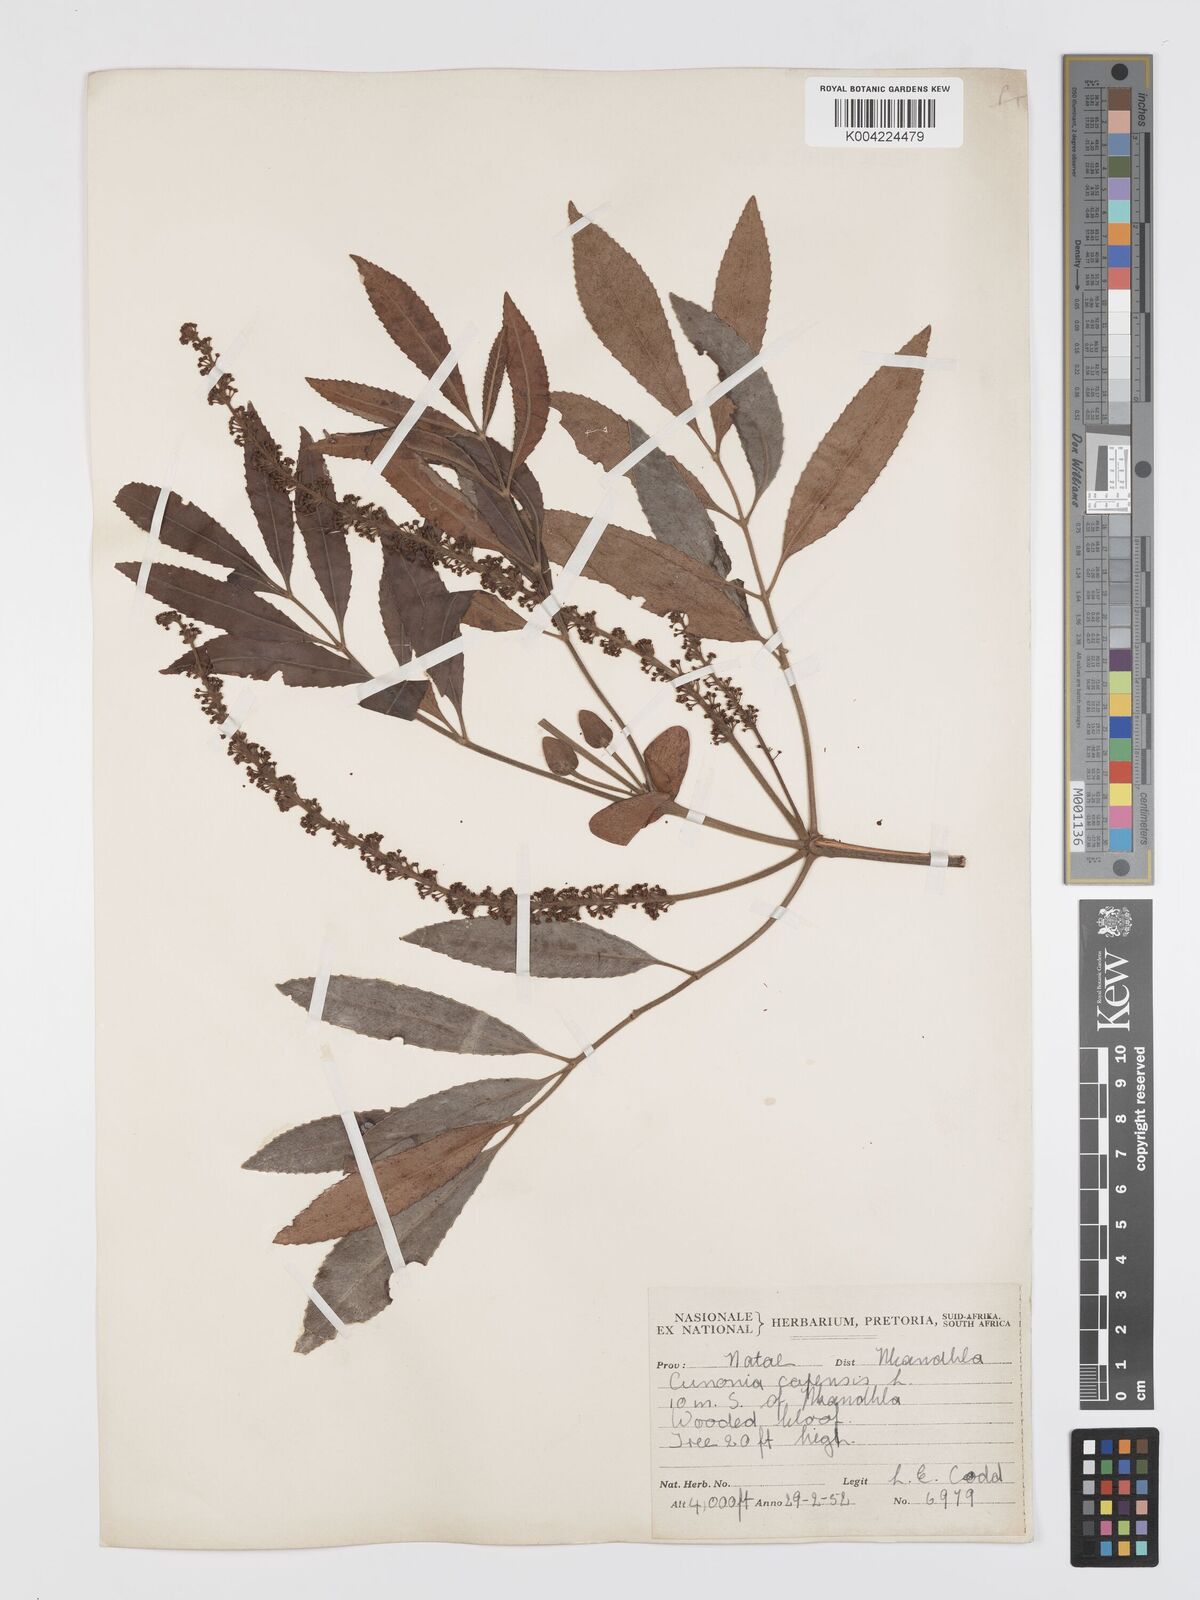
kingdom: Plantae
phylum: Tracheophyta
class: Magnoliopsida
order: Oxalidales
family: Cunoniaceae
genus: Cunonia
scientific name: Cunonia capensis
